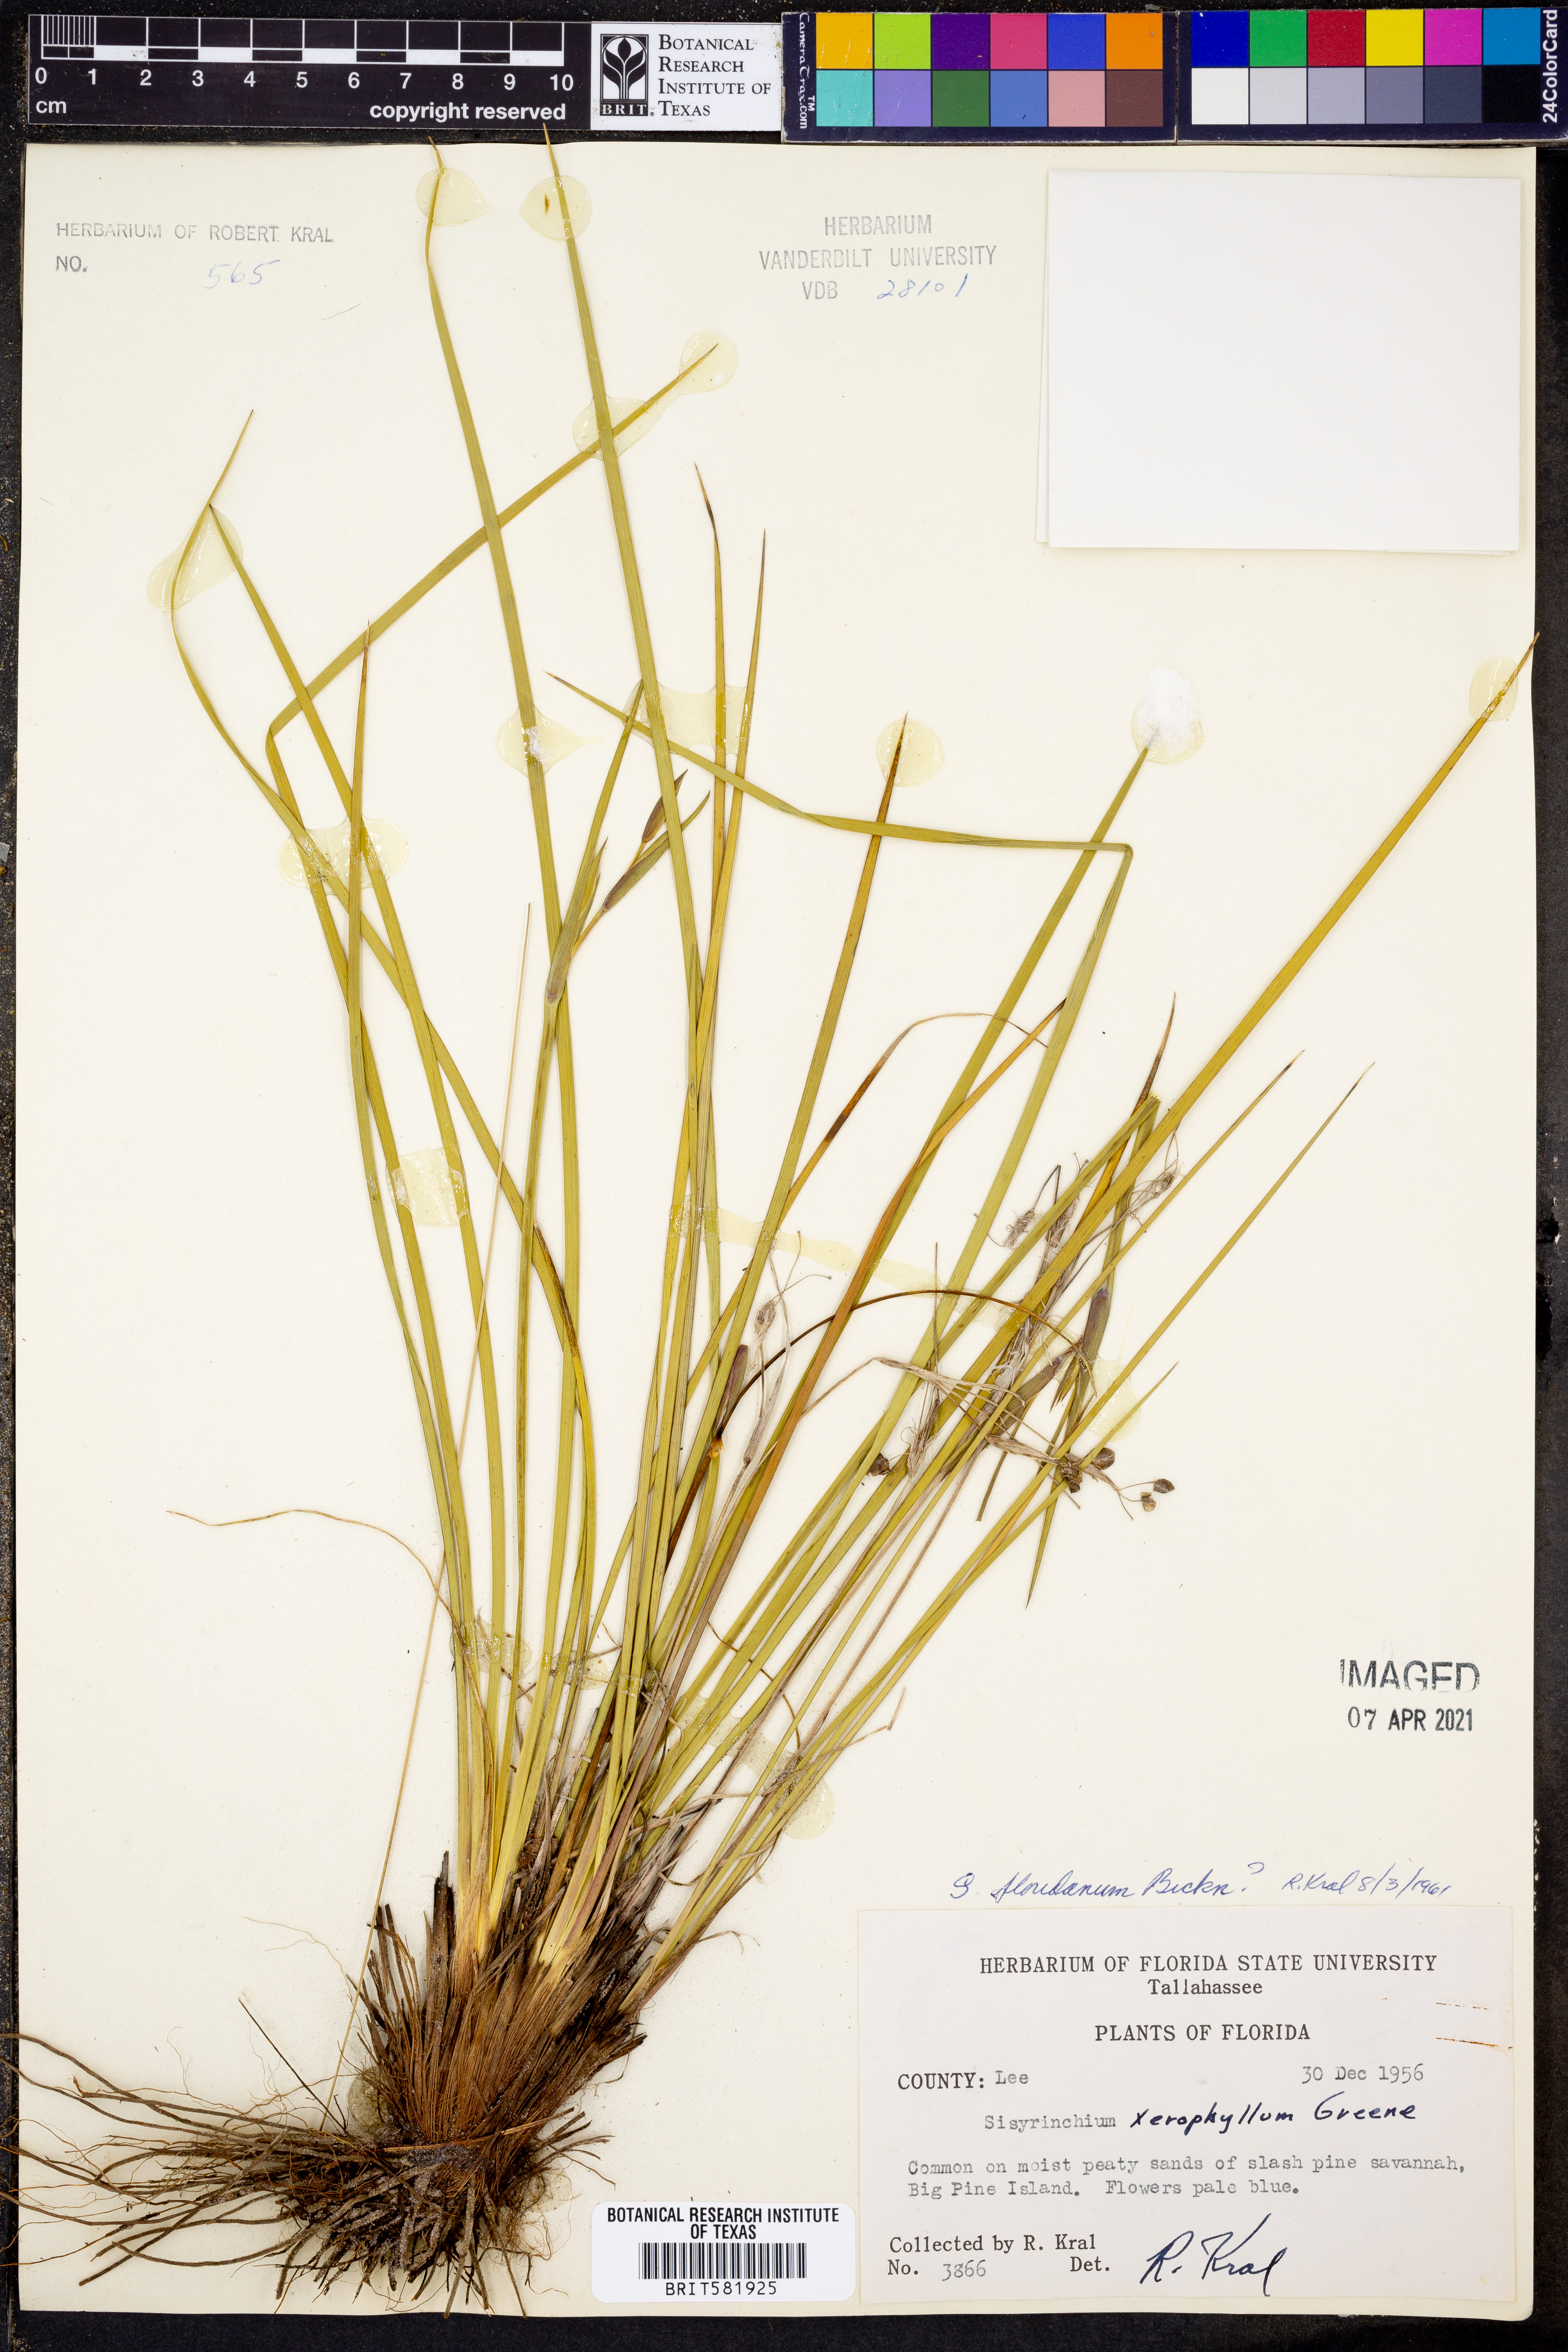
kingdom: Plantae
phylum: Tracheophyta
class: Liliopsida
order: Asparagales
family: Iridaceae
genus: Sisyrinchium
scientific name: Sisyrinchium nashii
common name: Nash's blue-eyed-grass
